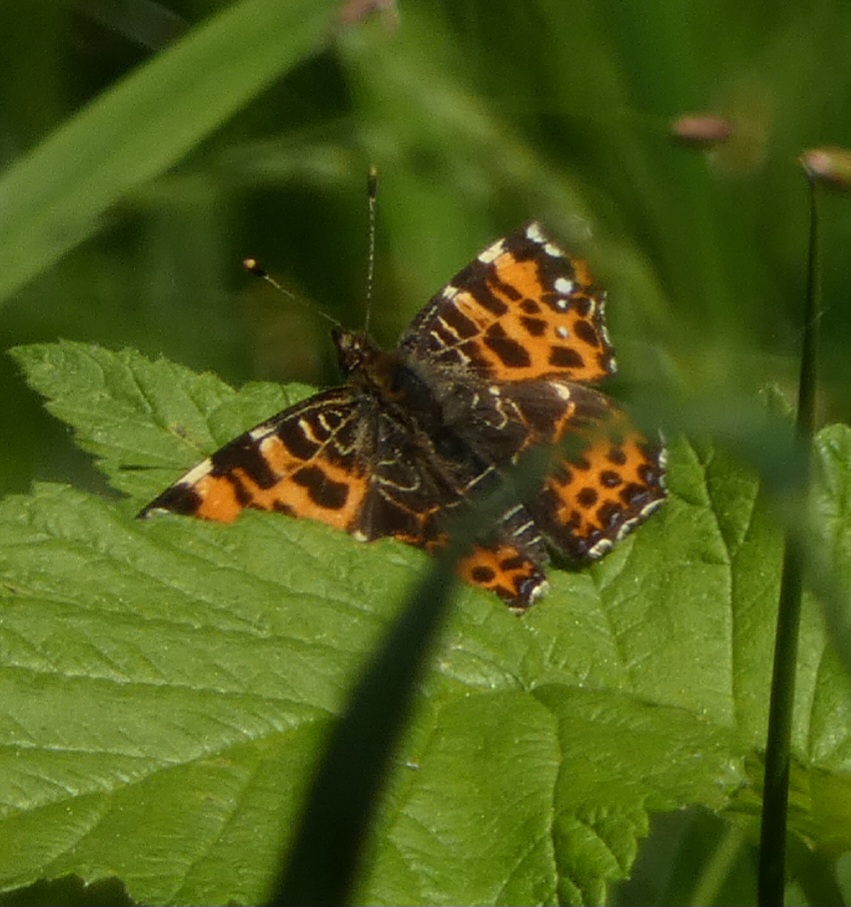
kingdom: Animalia
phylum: Arthropoda
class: Insecta
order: Lepidoptera
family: Nymphalidae
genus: Araschnia
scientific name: Araschnia levana
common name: Nældesommerfugl
